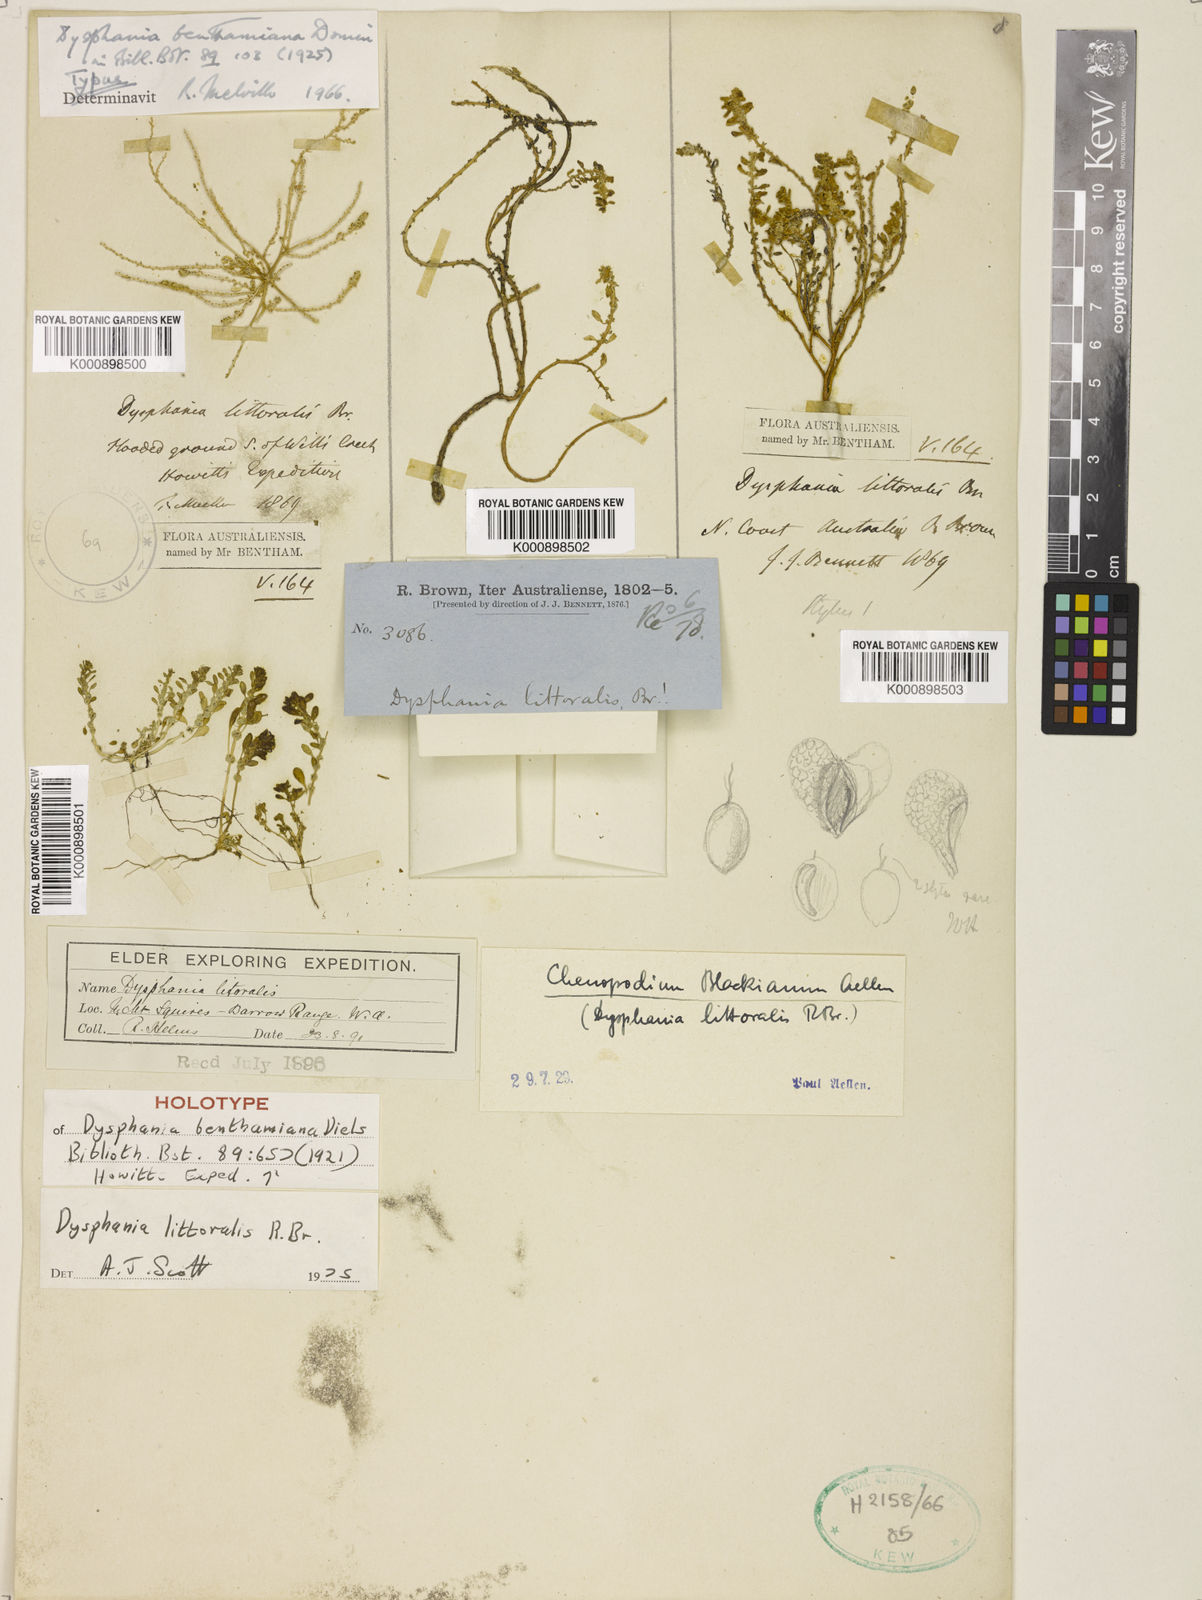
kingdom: Plantae
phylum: Tracheophyta
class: Magnoliopsida
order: Caryophyllales
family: Amaranthaceae
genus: Dysphania
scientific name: Dysphania
